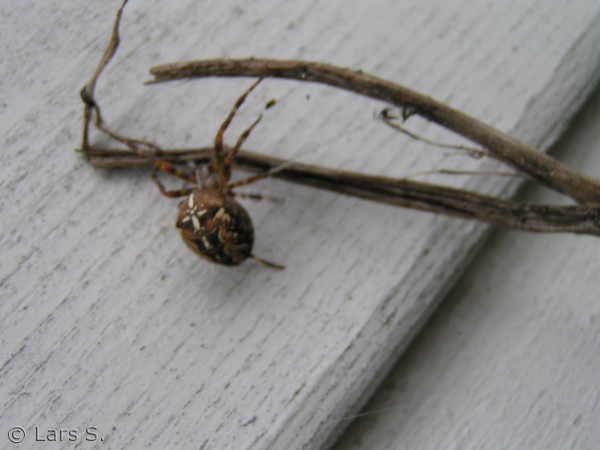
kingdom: Animalia
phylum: Arthropoda
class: Arachnida
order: Araneae
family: Araneidae
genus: Araneus
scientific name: Araneus diadematus
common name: Korsedderkop
